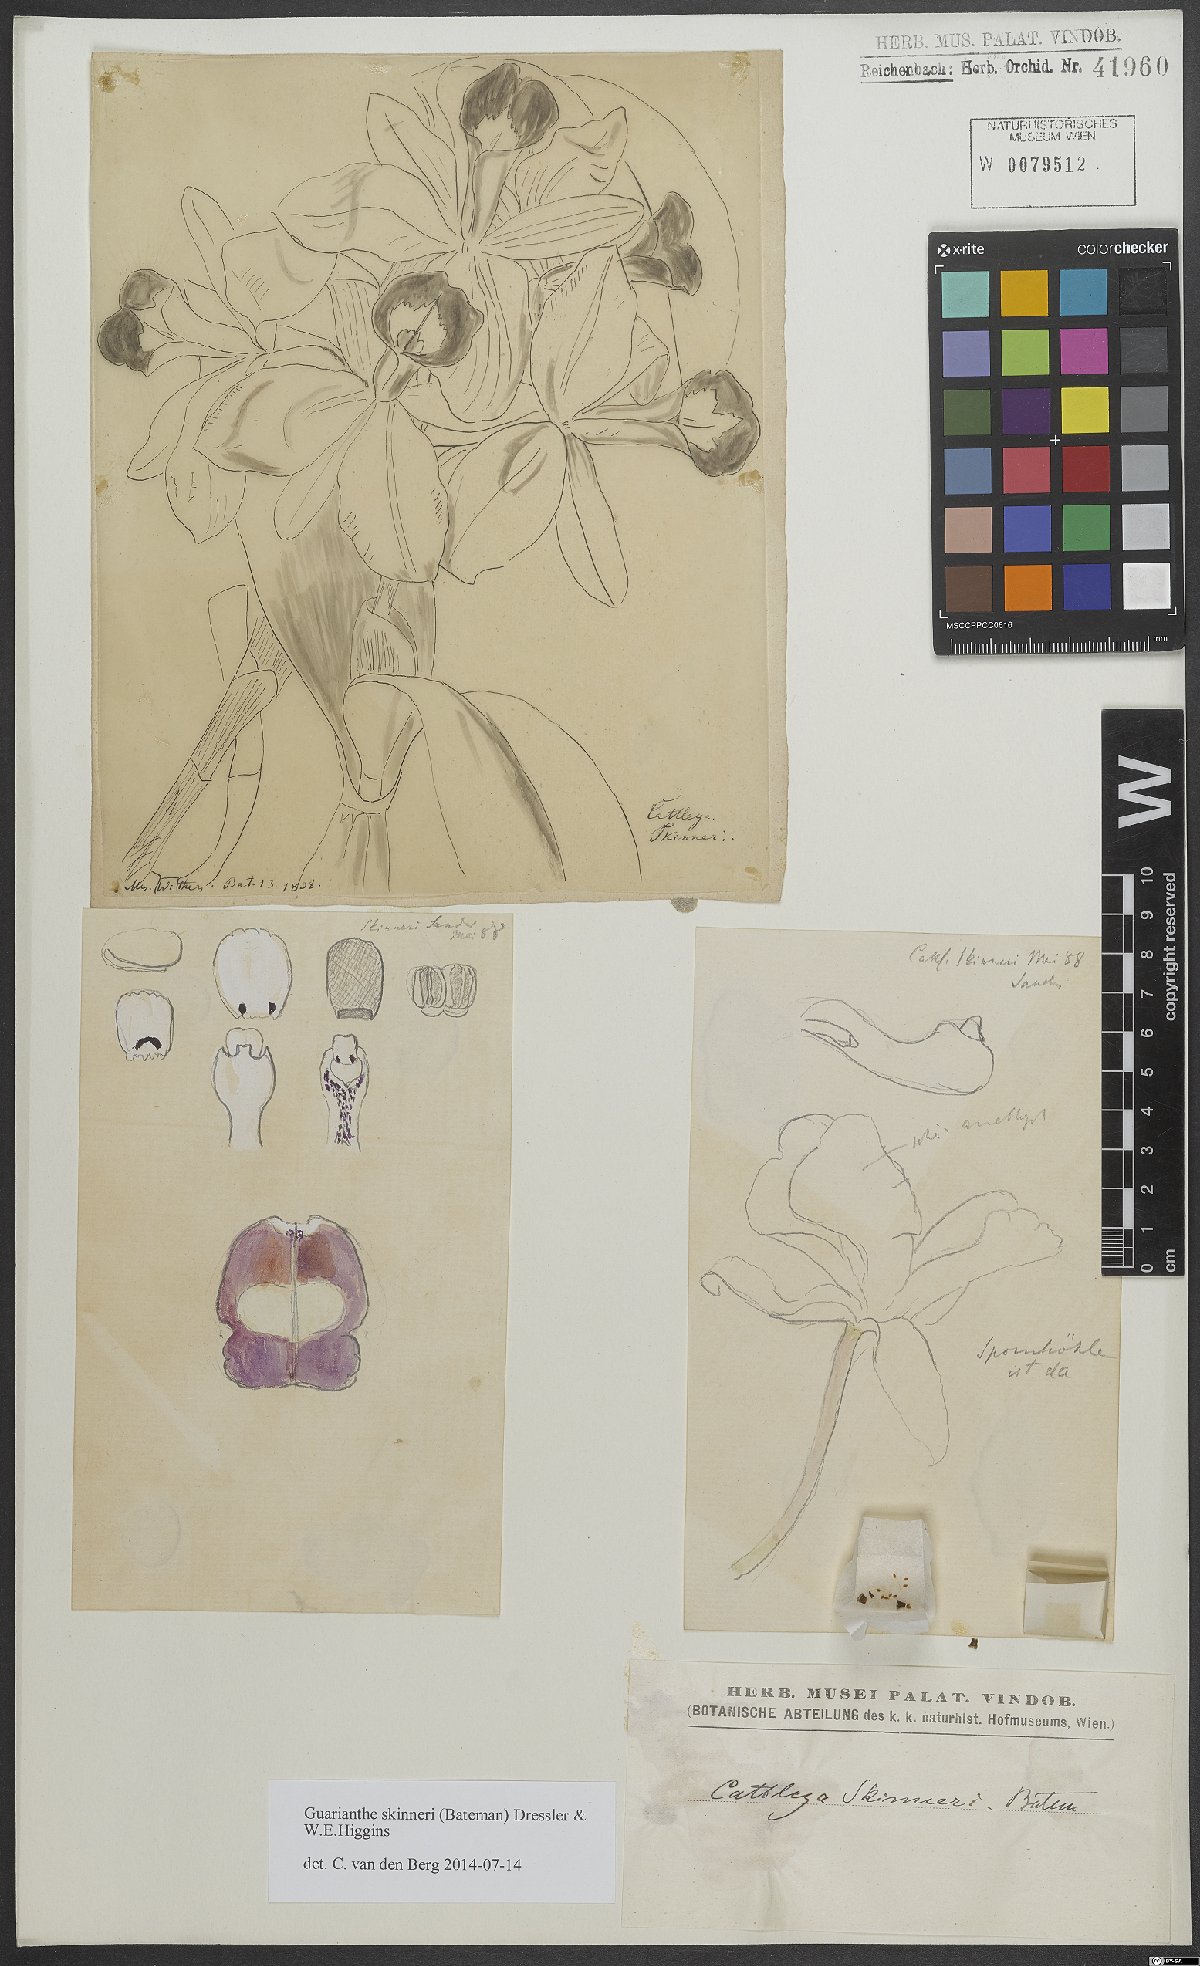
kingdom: Plantae
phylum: Tracheophyta
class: Liliopsida
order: Asparagales
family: Orchidaceae
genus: Guarianthe
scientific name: Guarianthe skinneri
